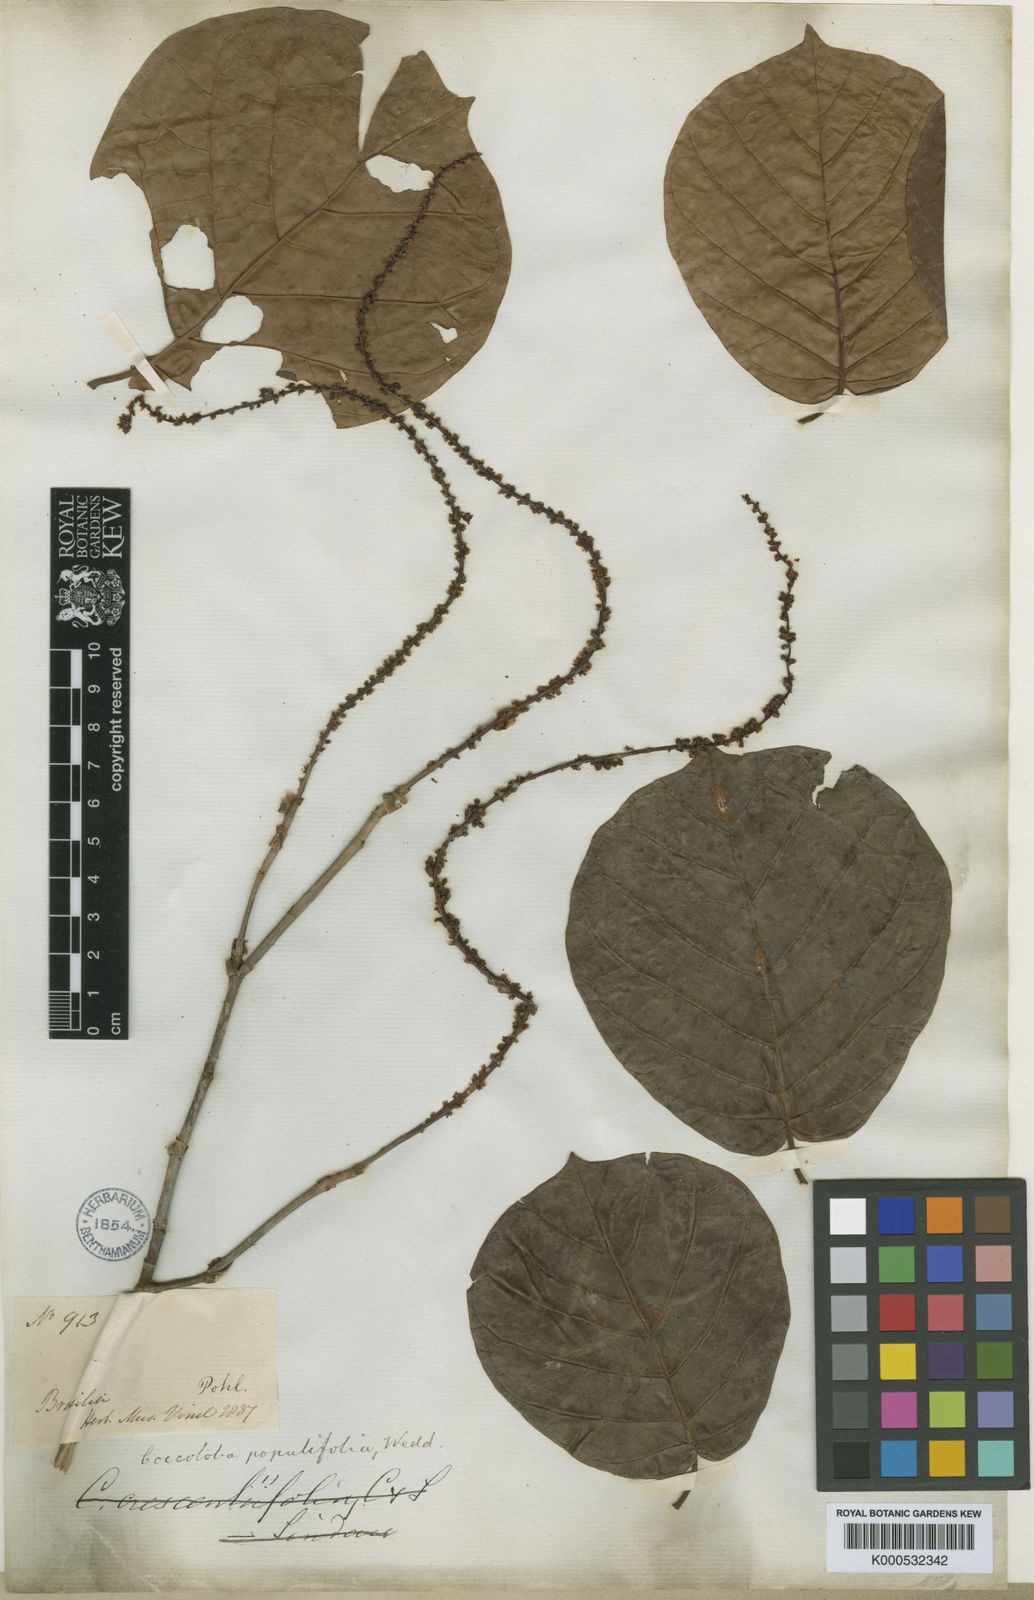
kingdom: Plantae
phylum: Tracheophyta
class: Magnoliopsida
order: Caryophyllales
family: Polygonaceae
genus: Coccoloba
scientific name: Coccoloba alnifolia
